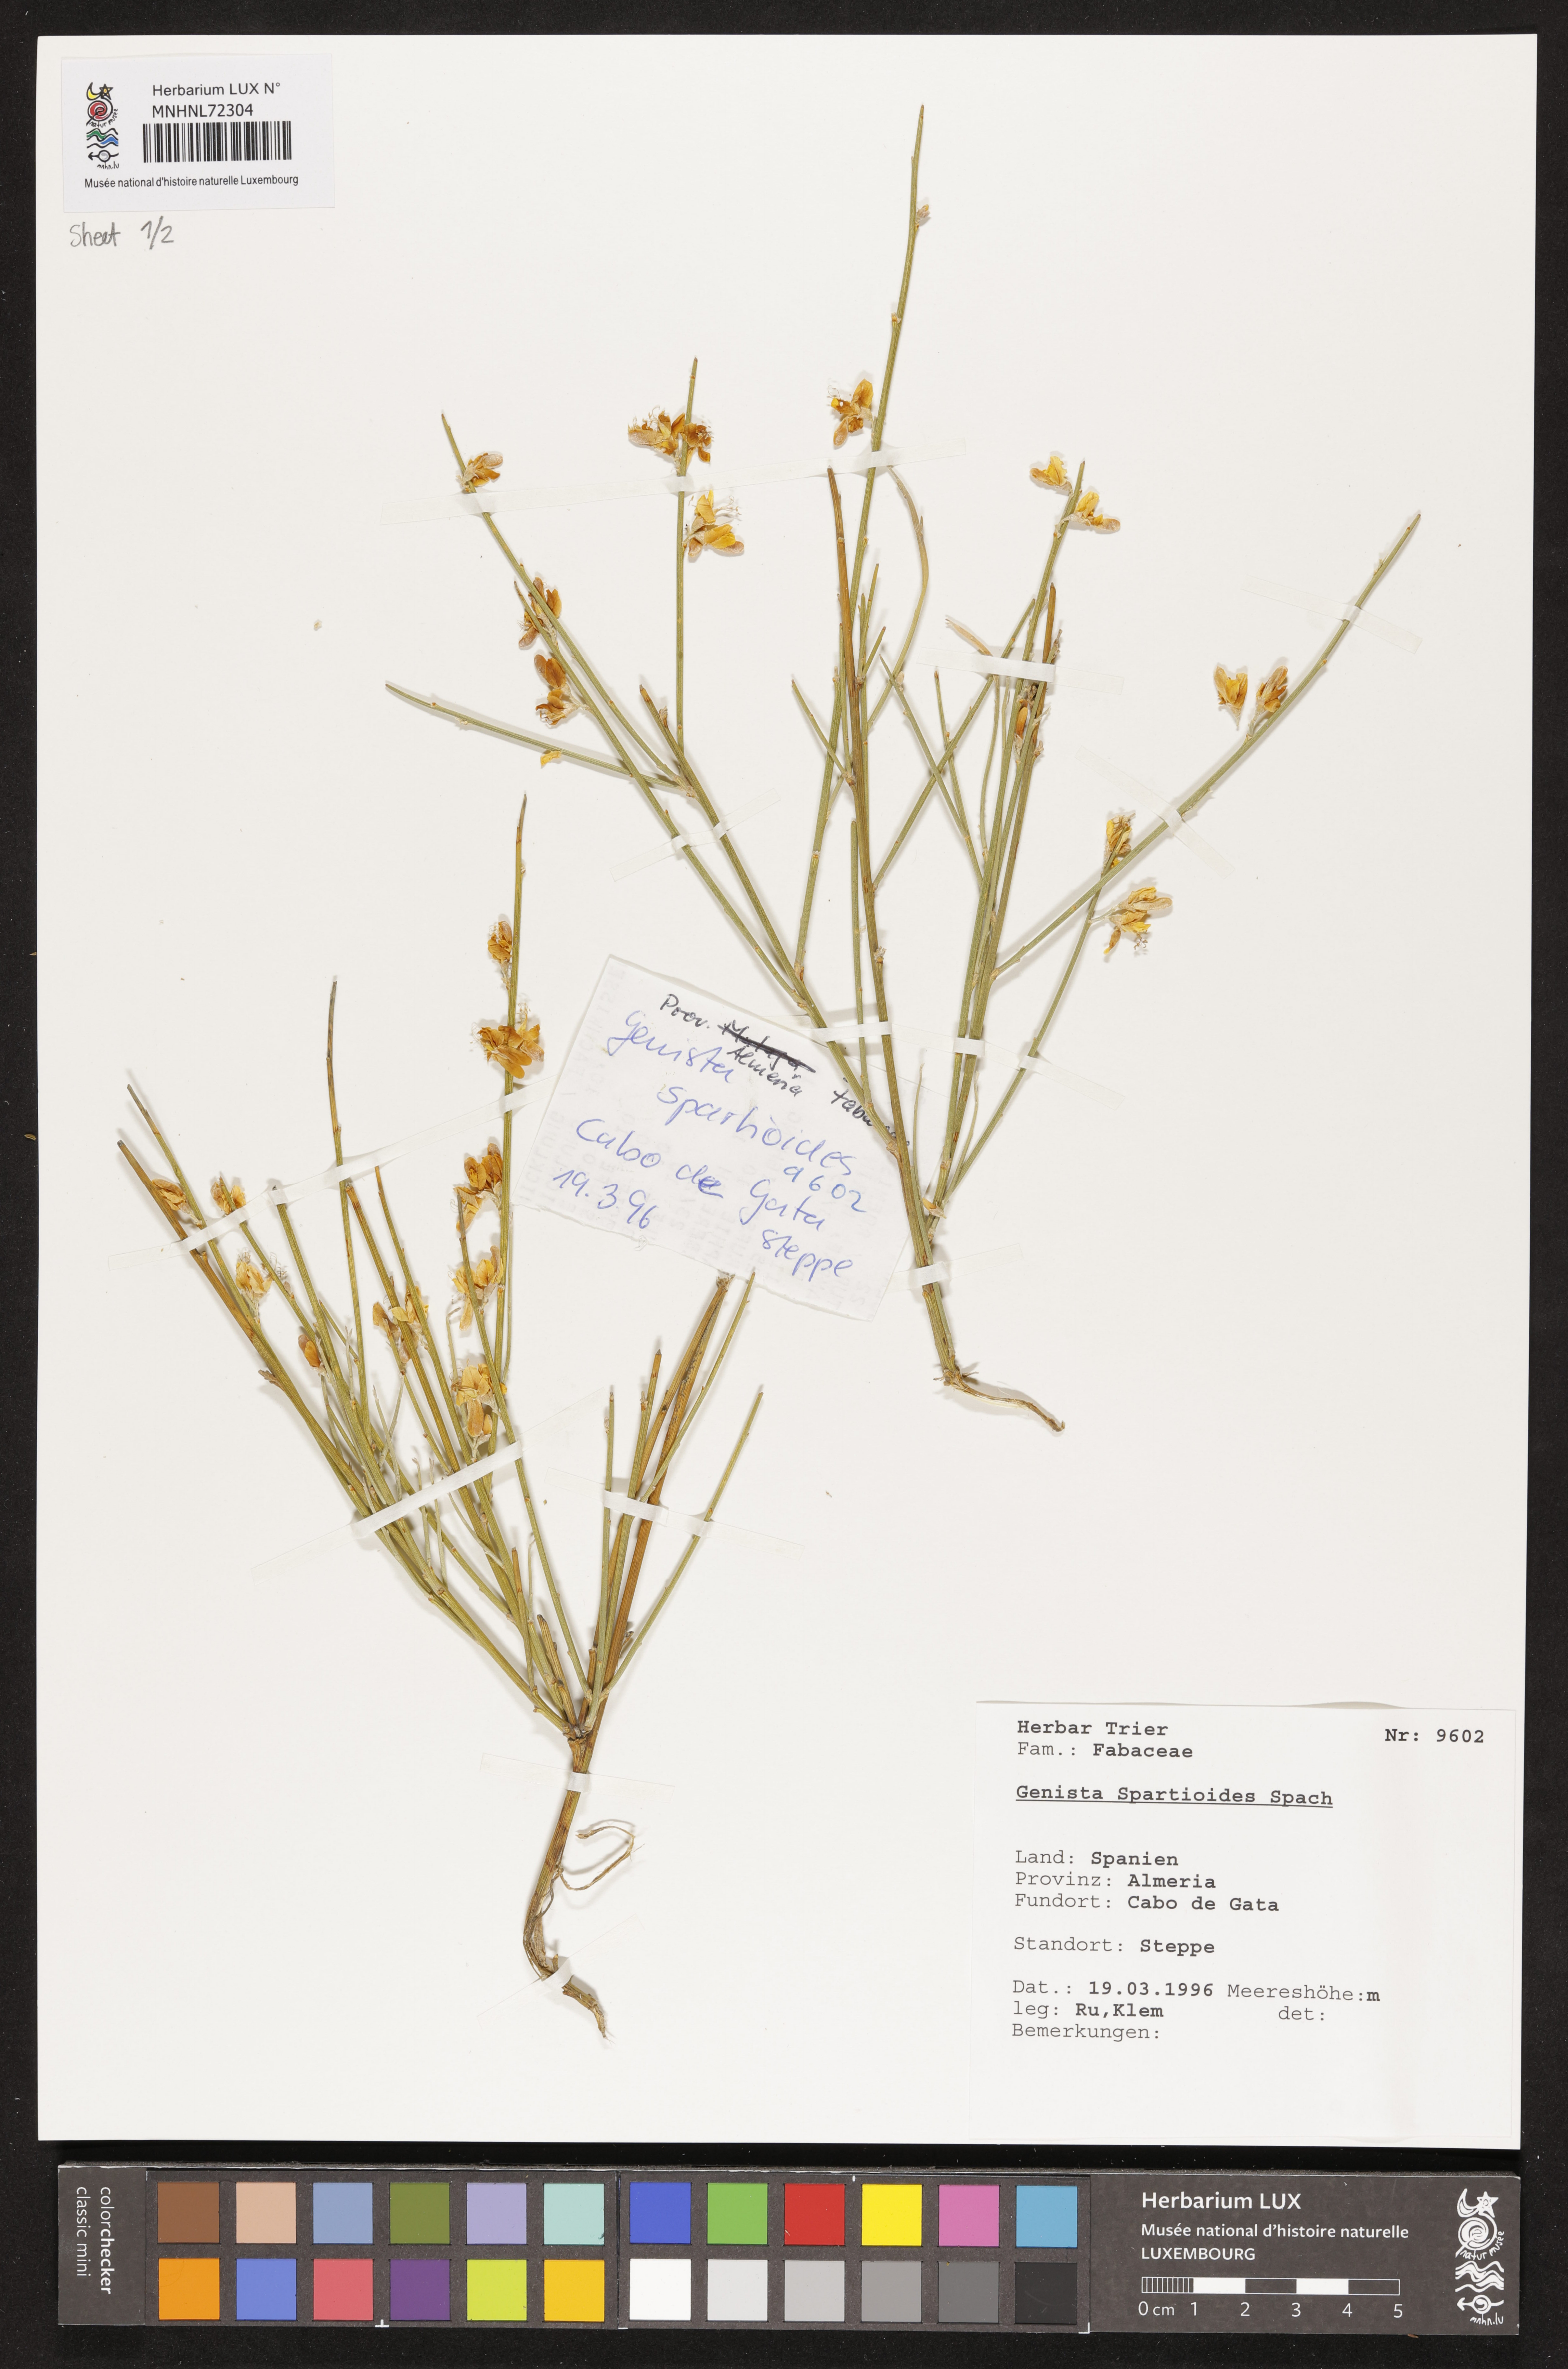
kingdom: Plantae
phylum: Tracheophyta
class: Magnoliopsida
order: Fabales
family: Fabaceae
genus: Genista
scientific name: Genista spartioides
